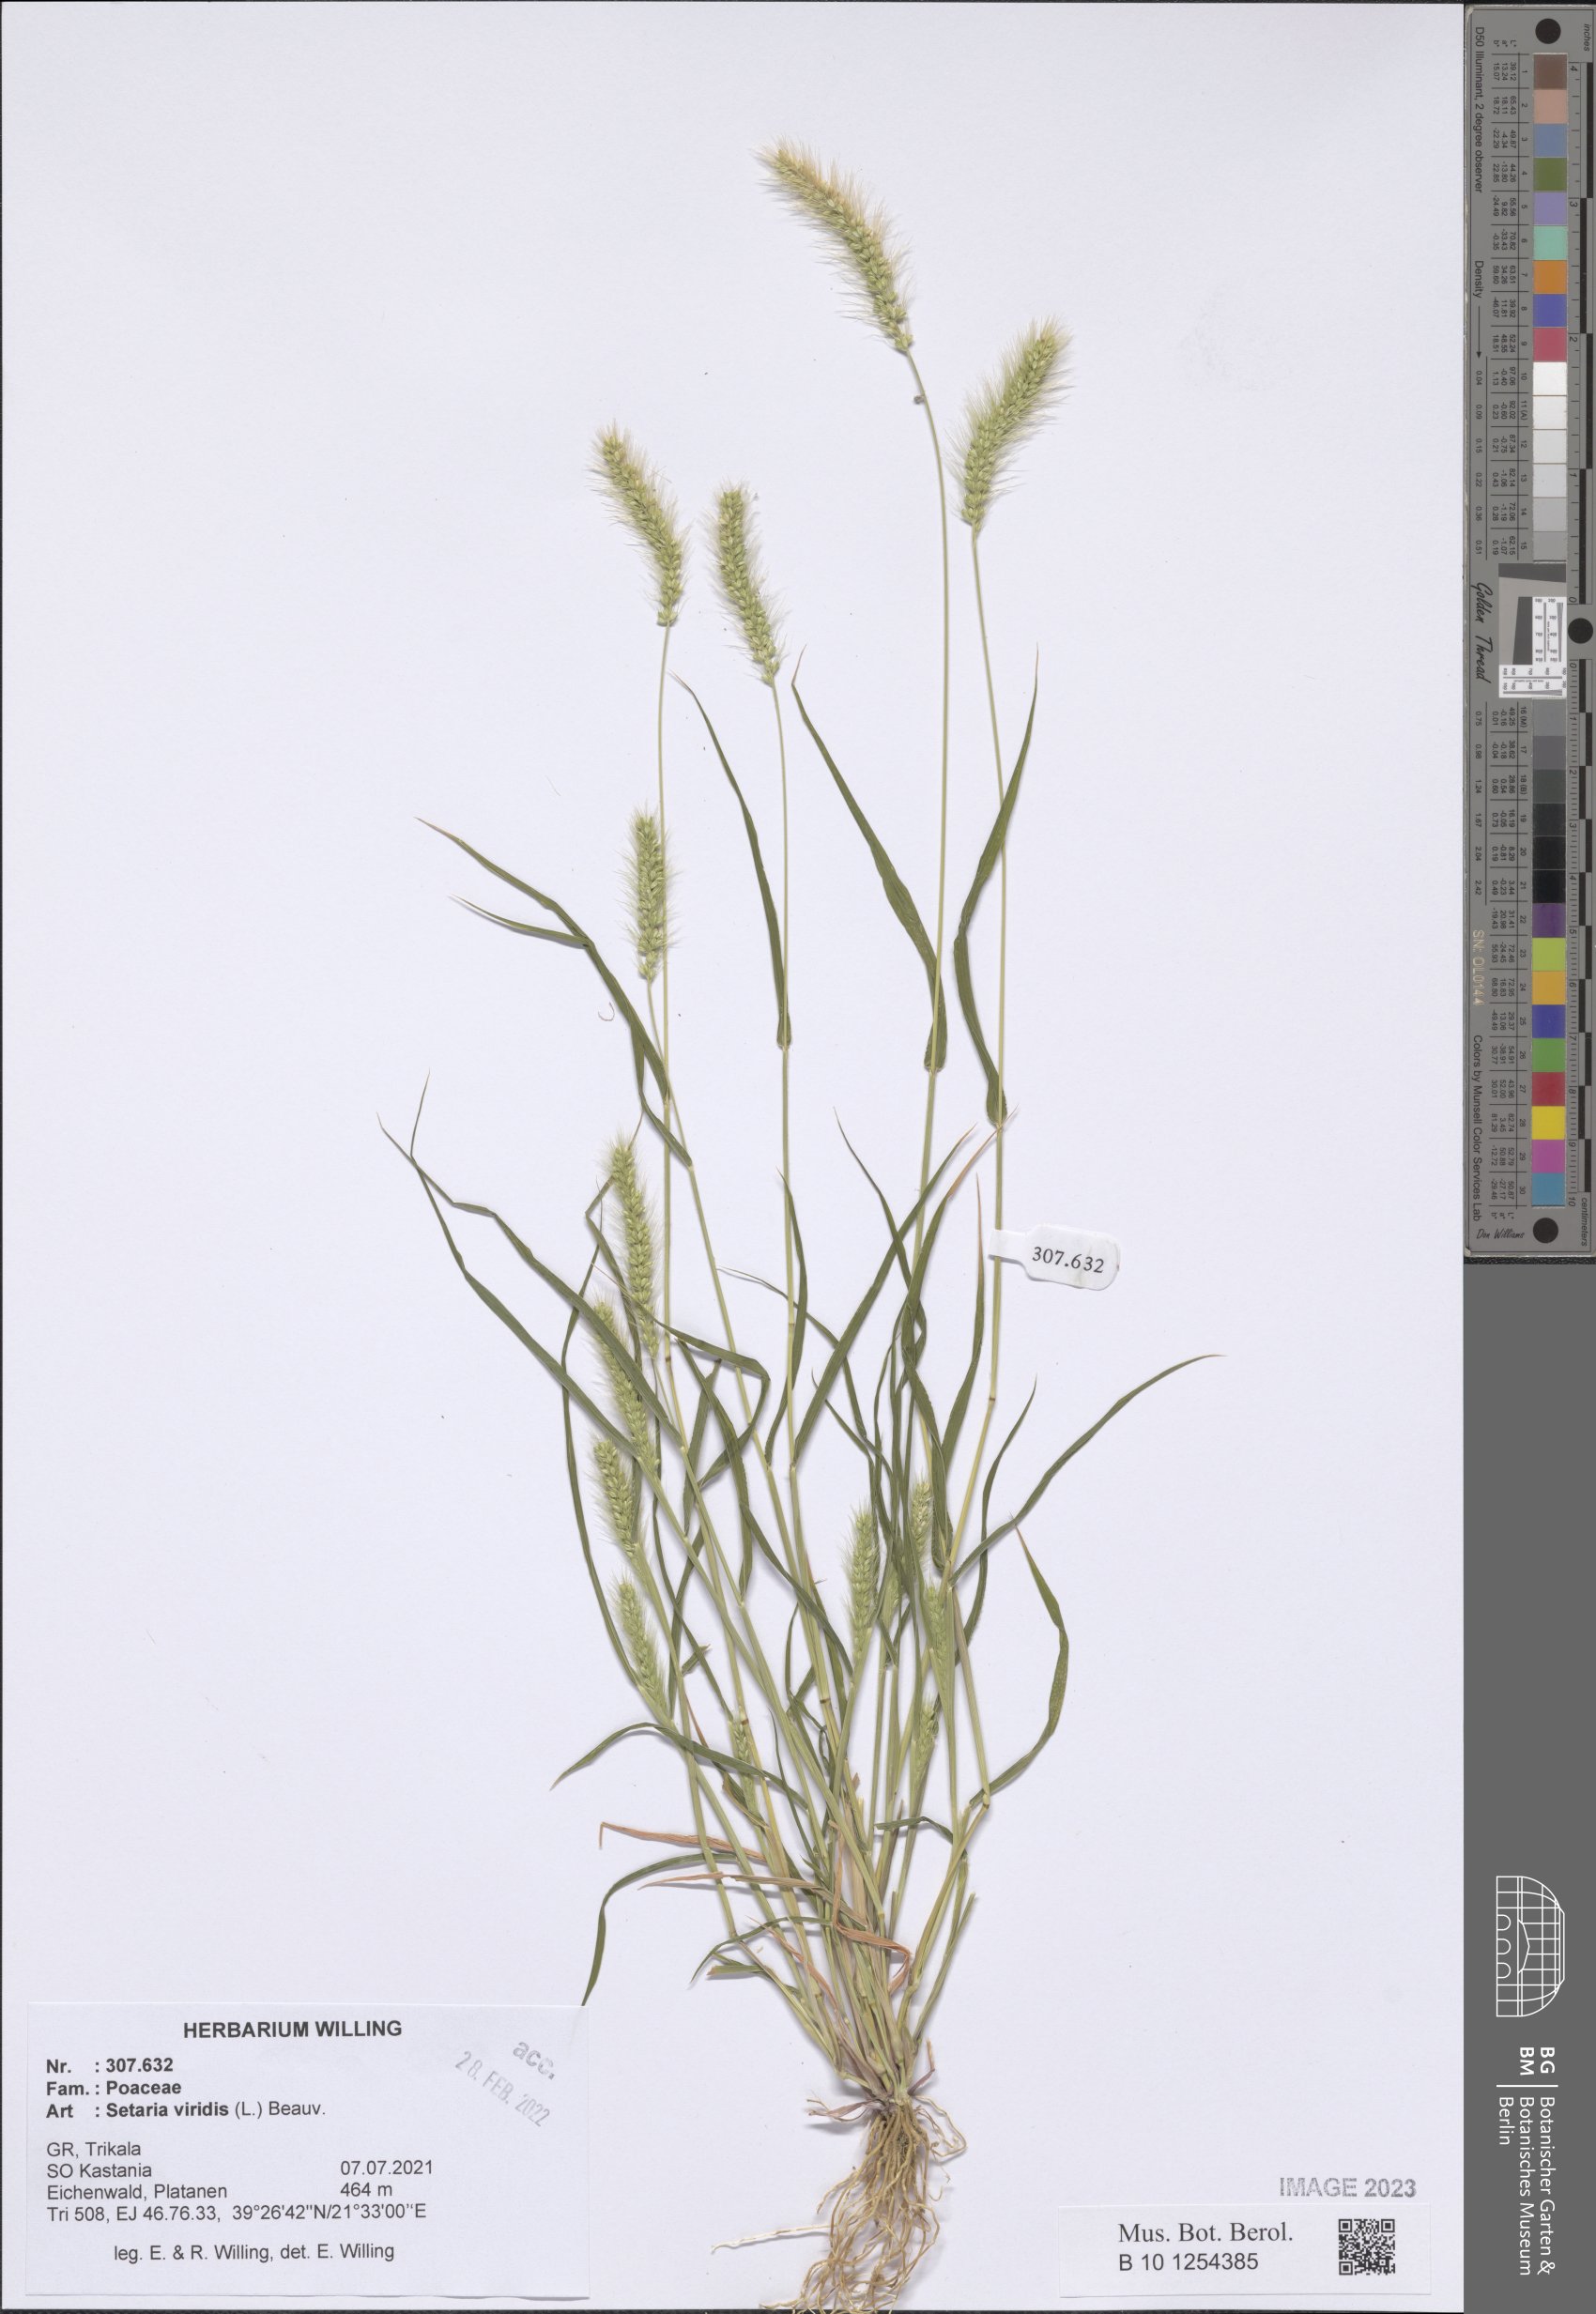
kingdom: Plantae
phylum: Tracheophyta
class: Liliopsida
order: Poales
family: Poaceae
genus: Setaria
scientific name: Setaria viridis
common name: Green bristlegrass
